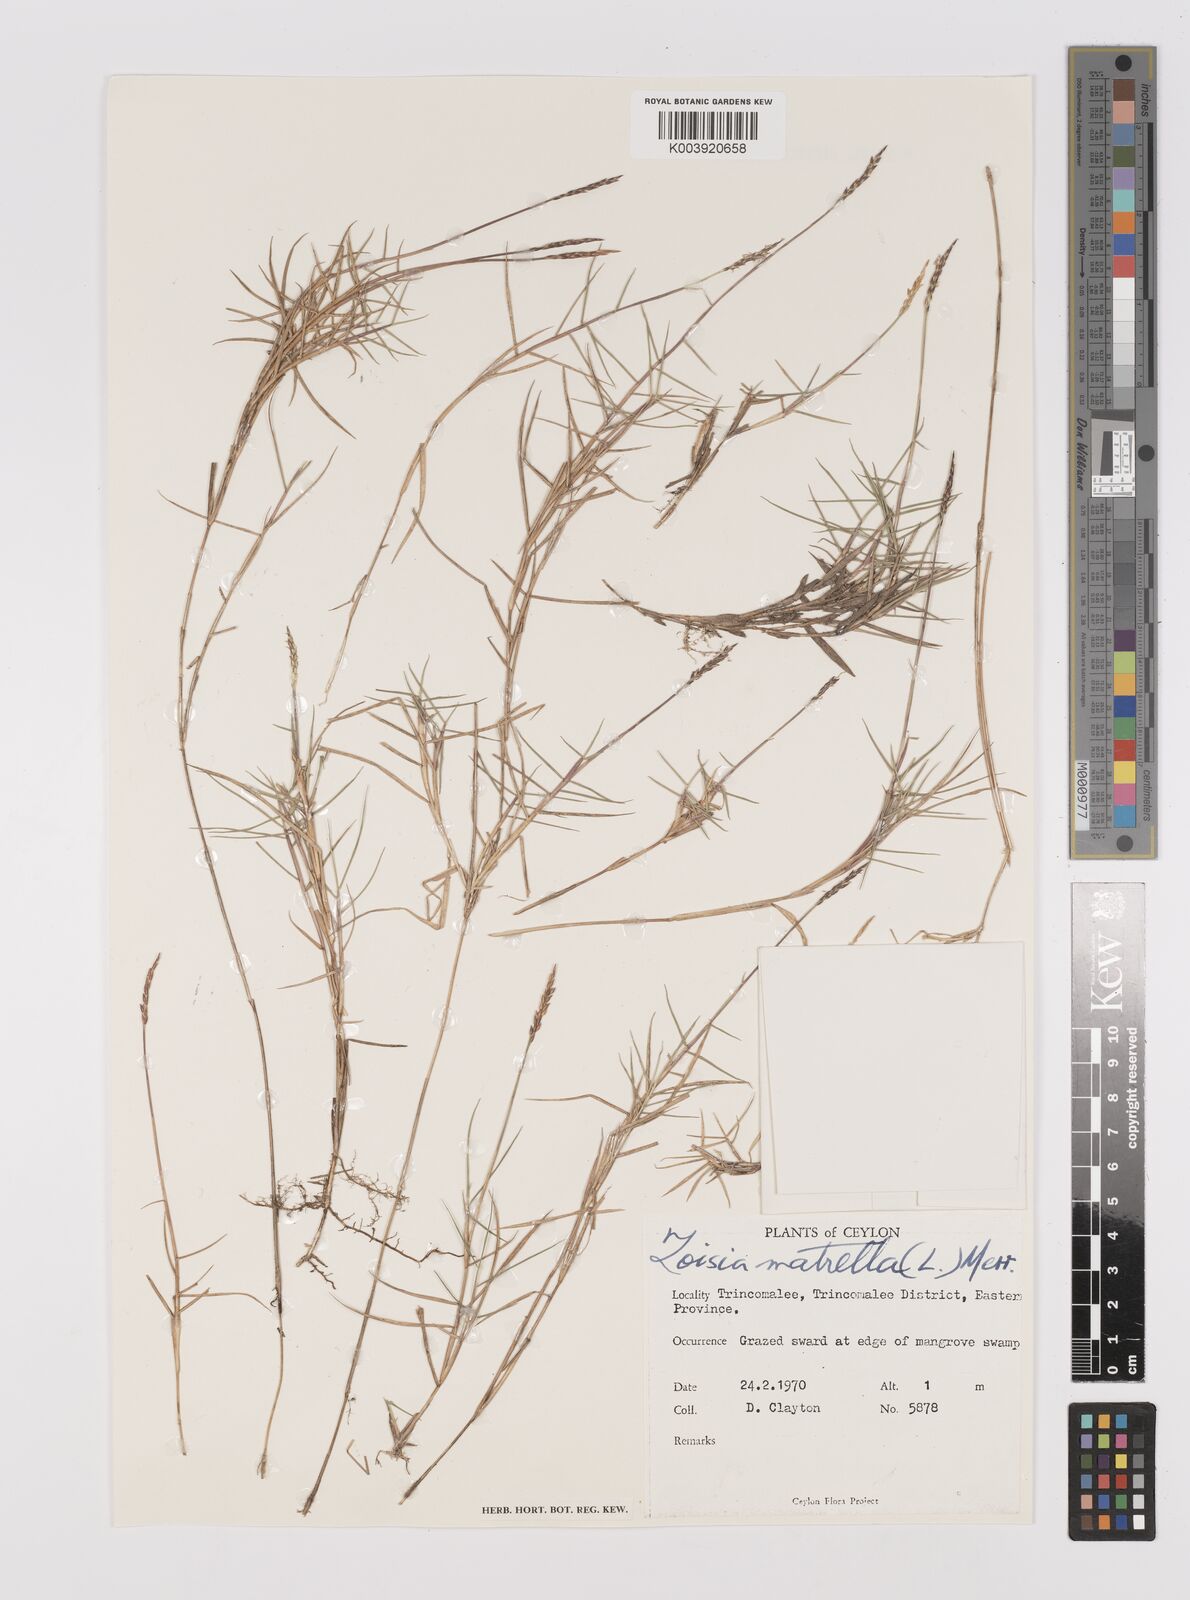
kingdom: Plantae
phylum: Tracheophyta
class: Liliopsida
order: Poales
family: Poaceae
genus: Zoysia
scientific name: Zoysia matrella
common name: Manila grass
